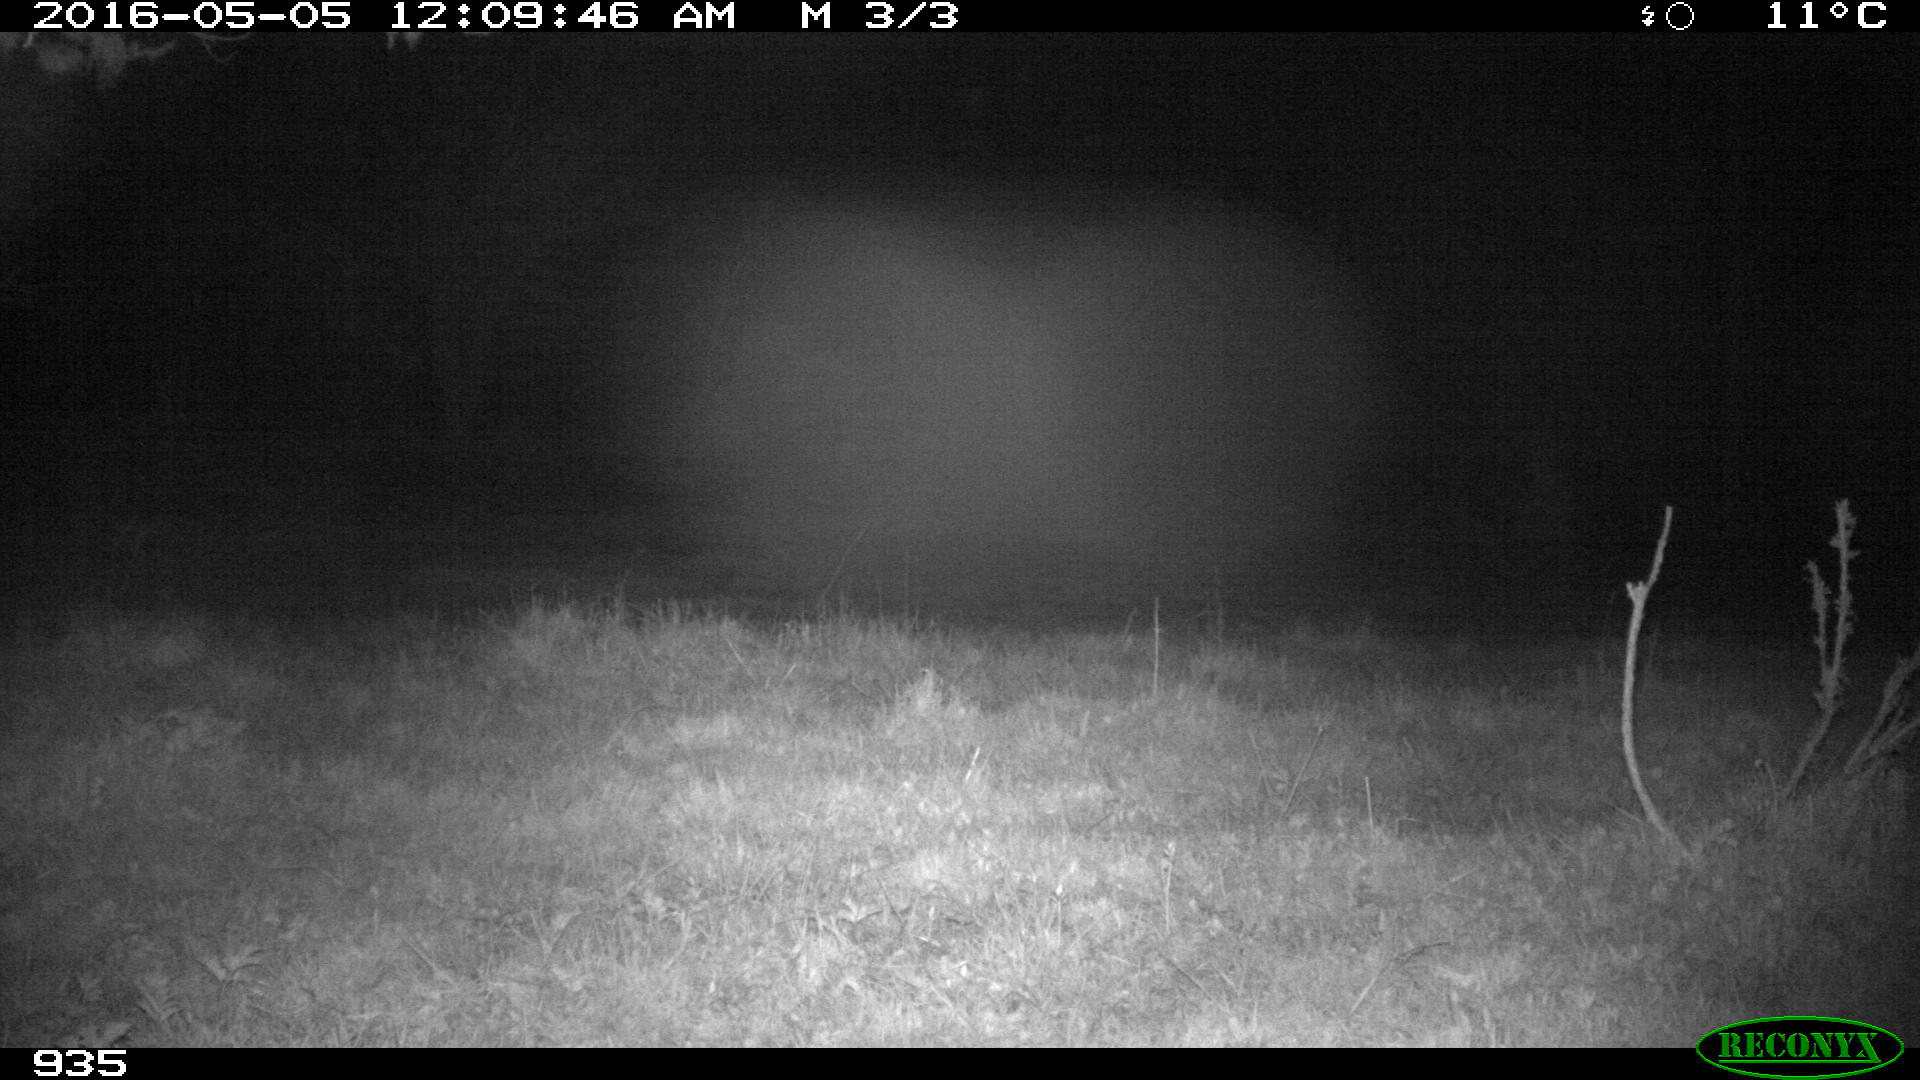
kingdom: Animalia
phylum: Chordata
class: Mammalia
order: Carnivora
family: Mustelidae
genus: Martes
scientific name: Martes foina
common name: Beech marten
